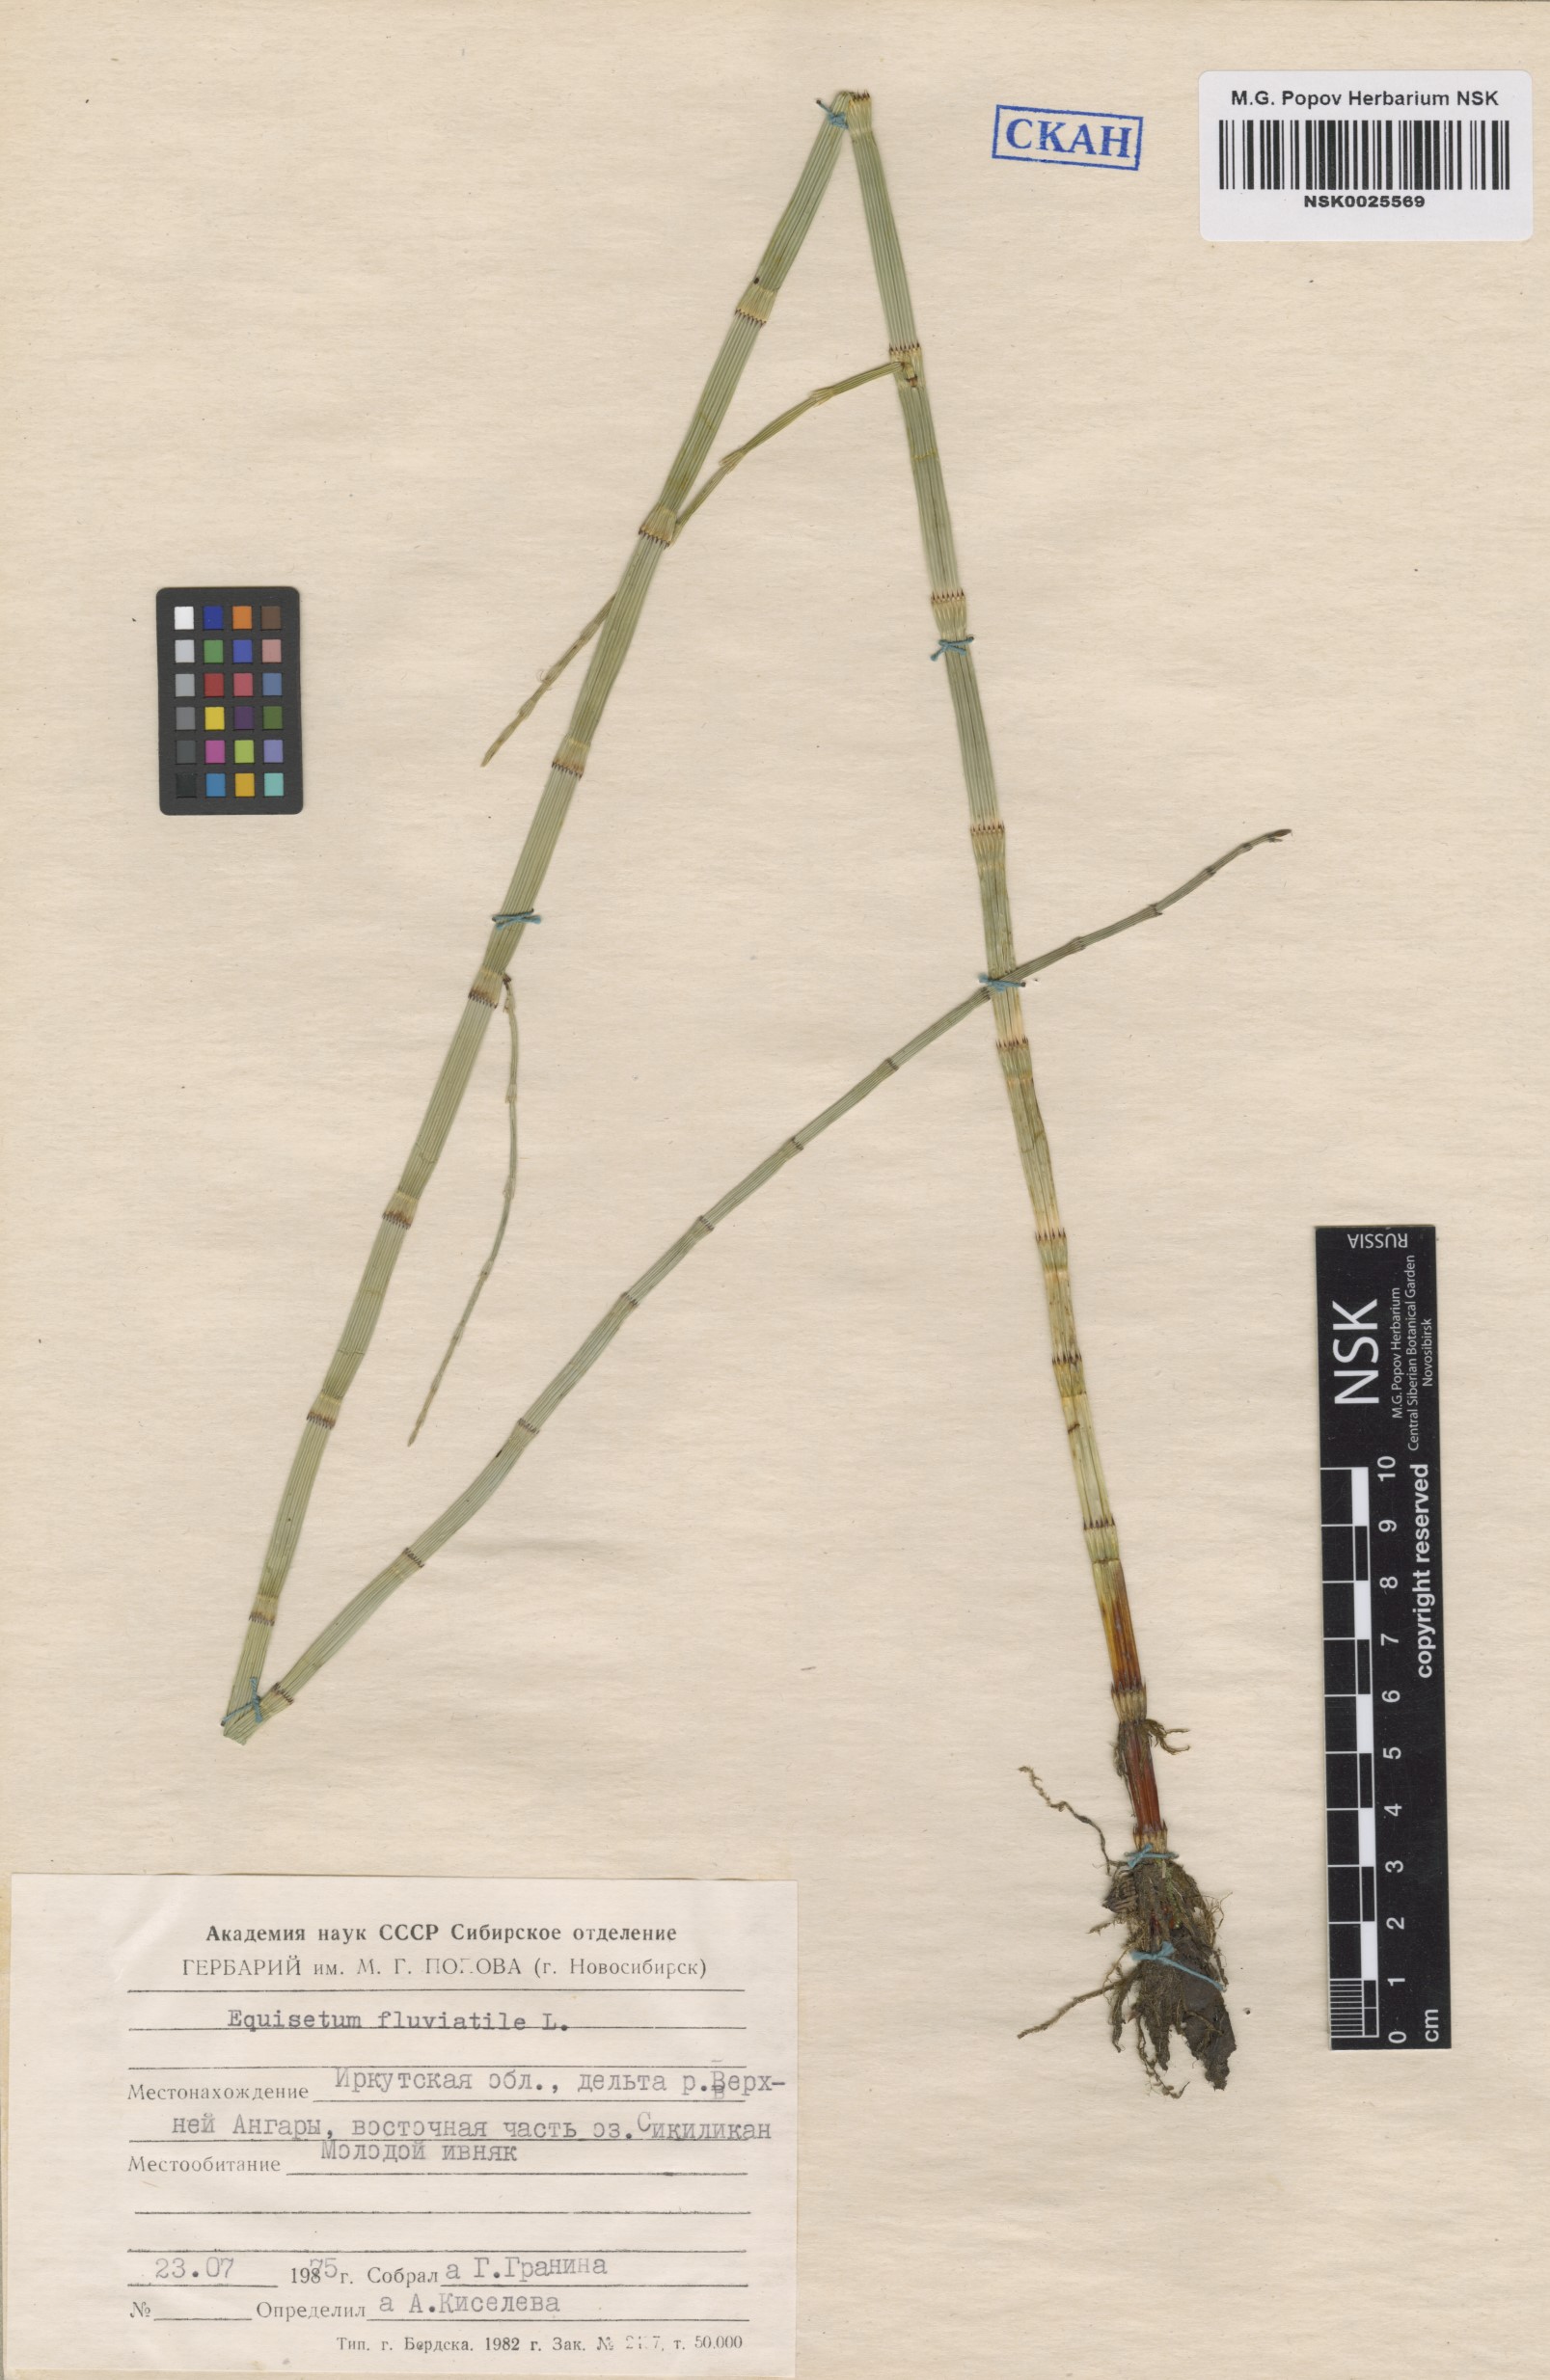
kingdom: Plantae
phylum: Tracheophyta
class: Polypodiopsida
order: Equisetales
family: Equisetaceae
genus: Equisetum
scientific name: Equisetum fluviatile
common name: Water horsetail
